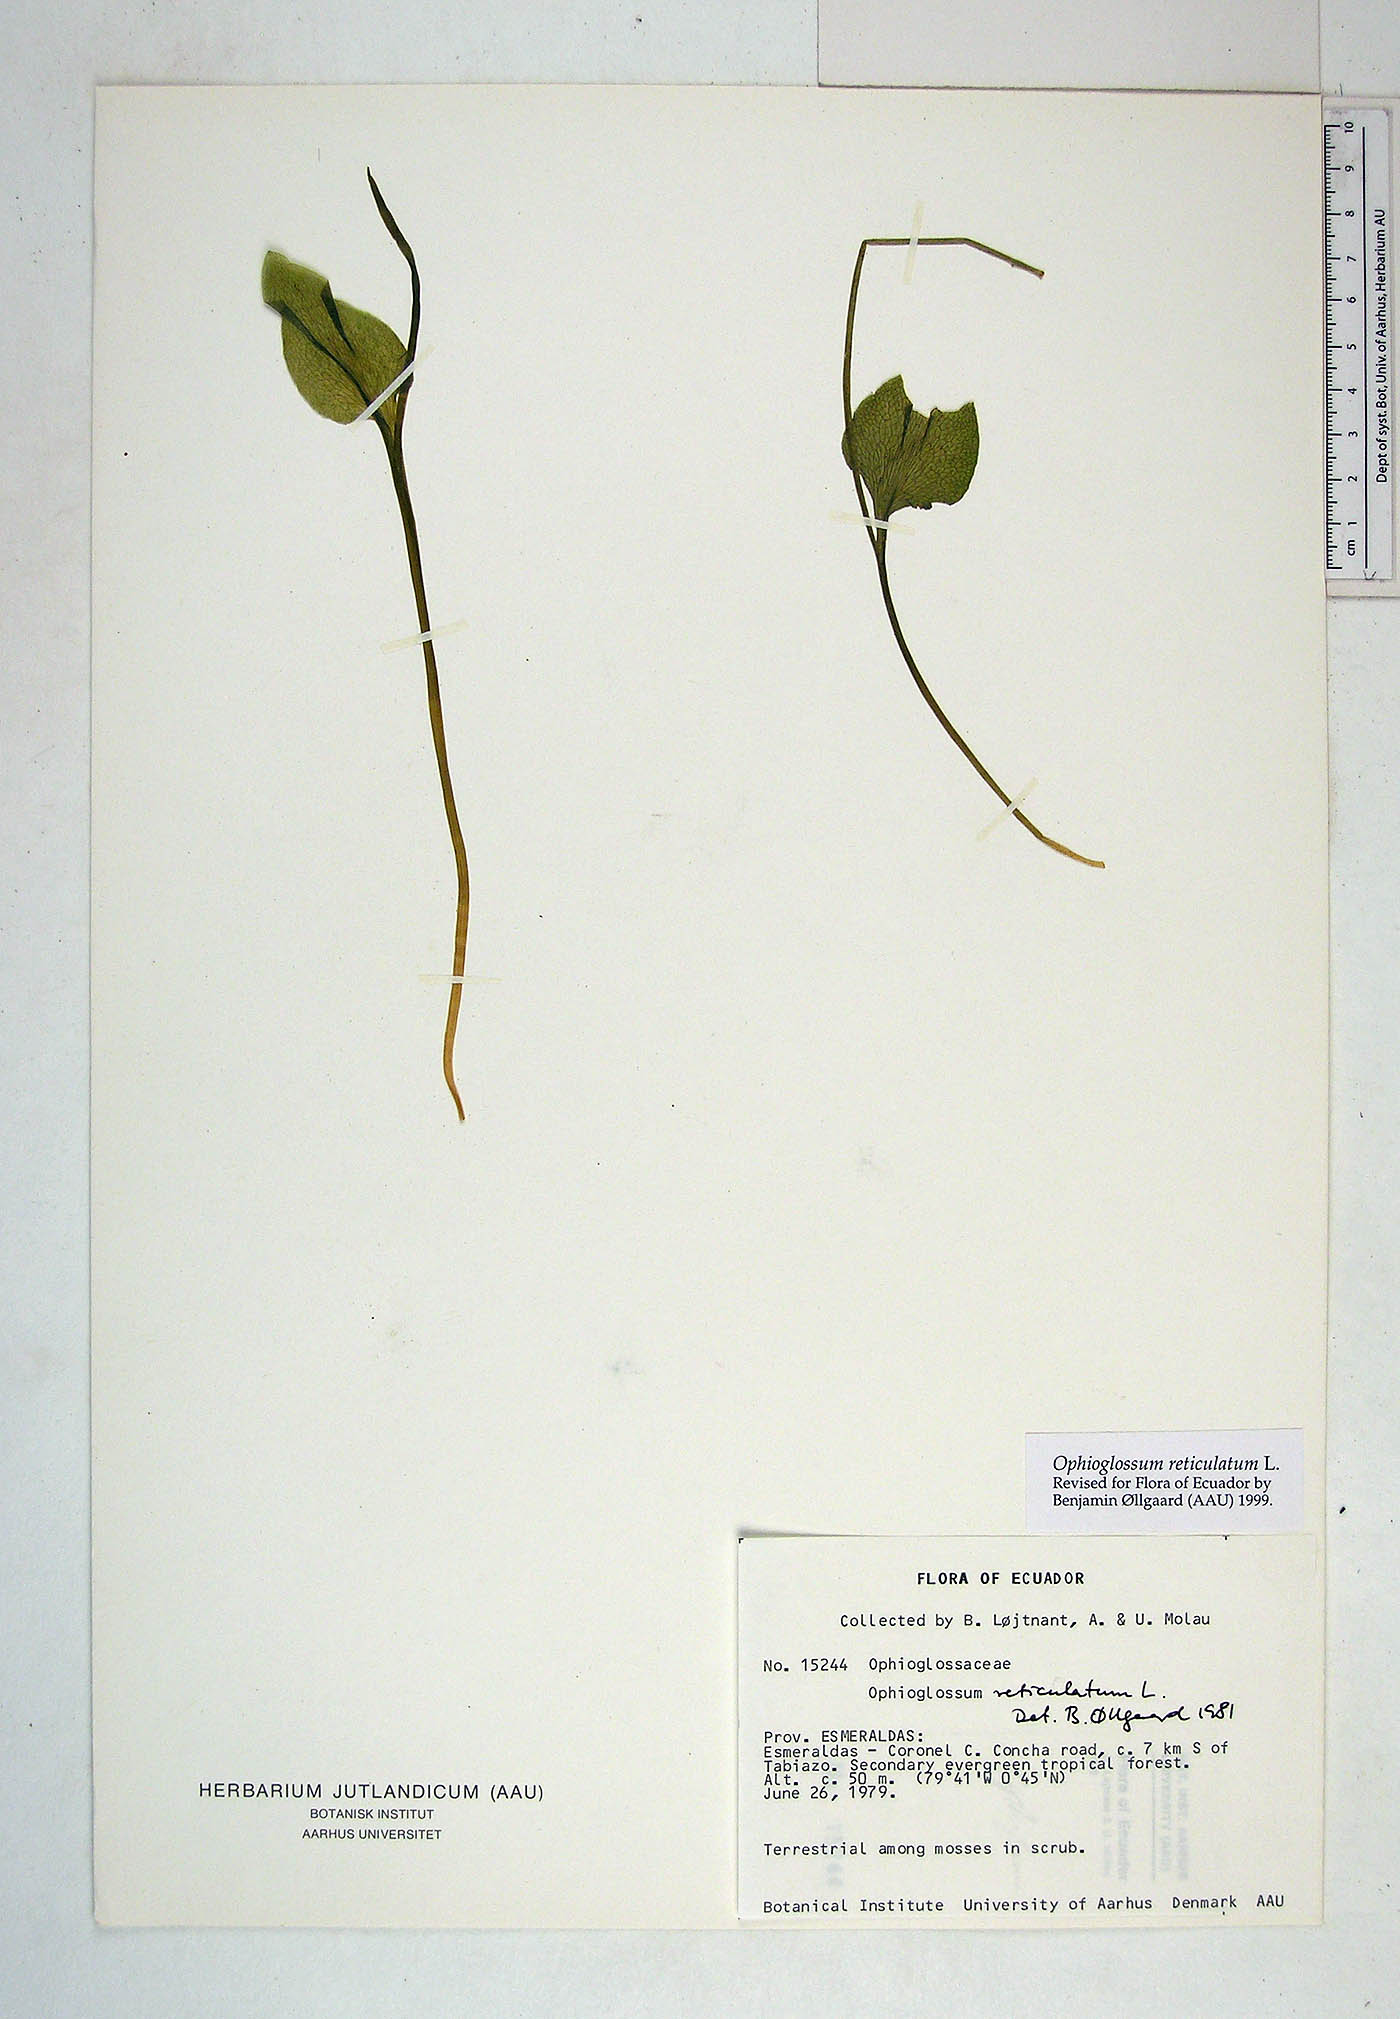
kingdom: Plantae
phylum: Tracheophyta
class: Polypodiopsida
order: Ophioglossales
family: Ophioglossaceae
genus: Ophioglossum
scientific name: Ophioglossum reticulatum
